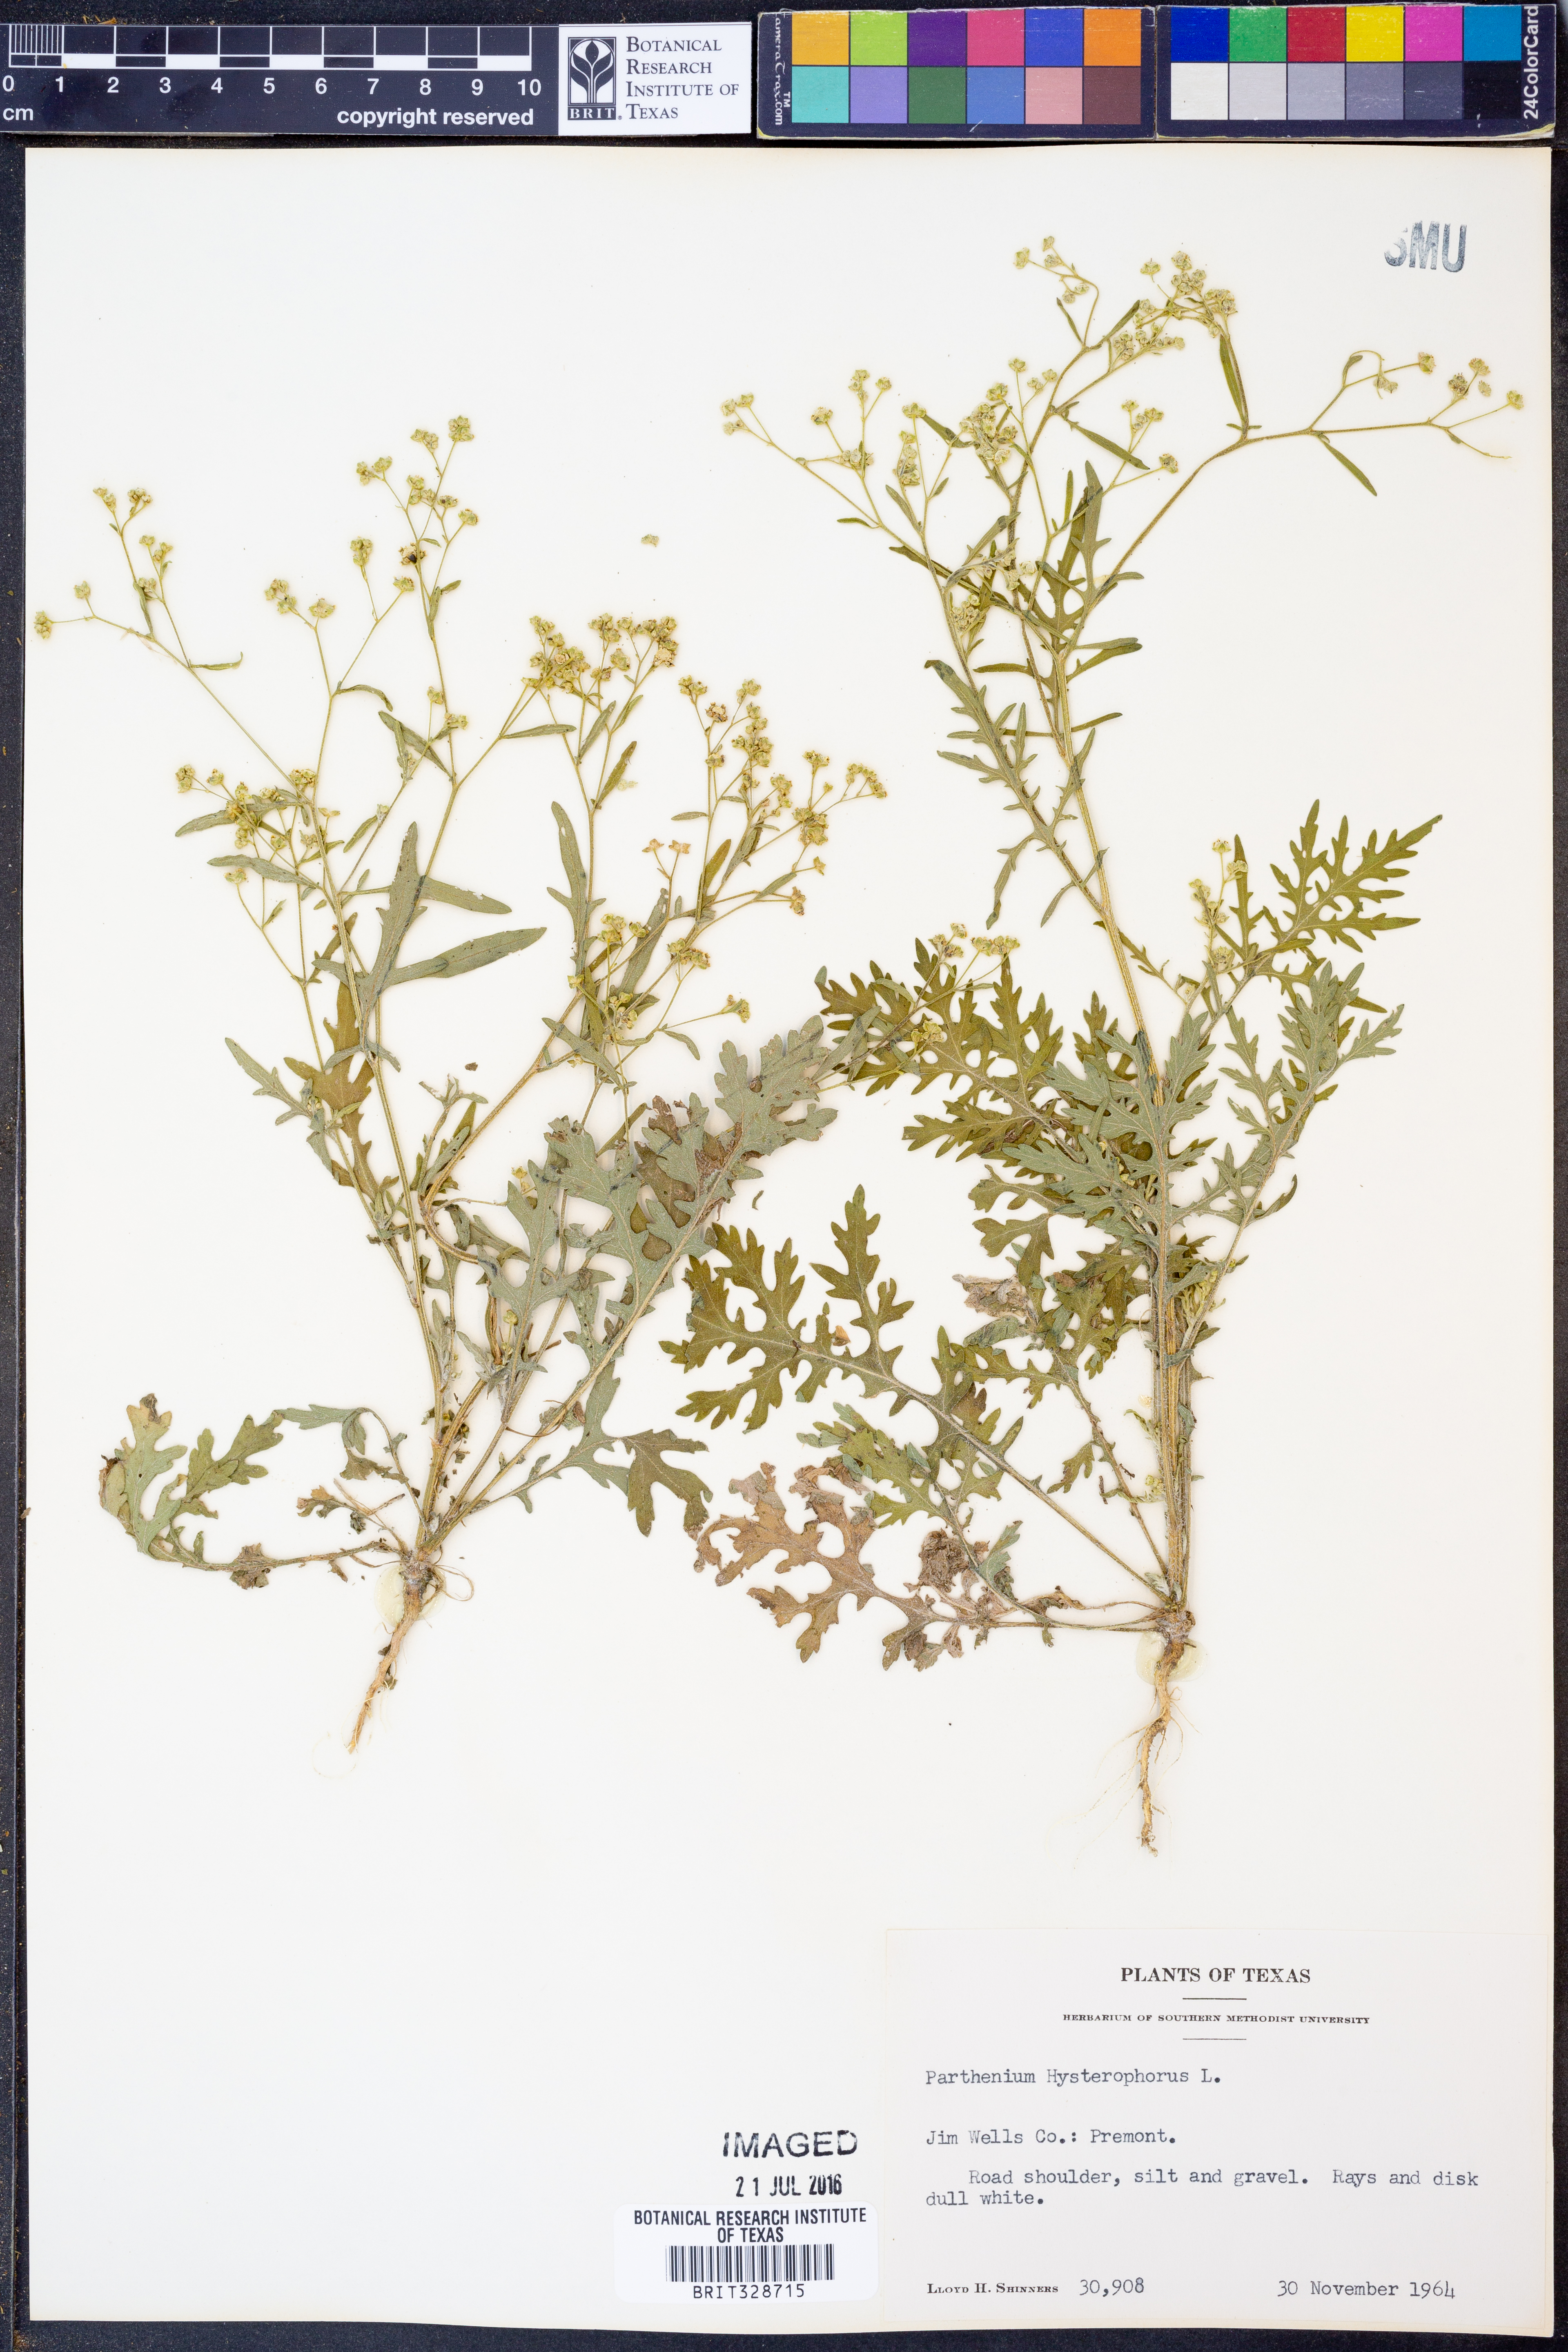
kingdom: Plantae
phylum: Tracheophyta
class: Magnoliopsida
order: Asterales
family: Asteraceae
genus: Parthenium
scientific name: Parthenium hysterophorus
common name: Santa maria feverfew
